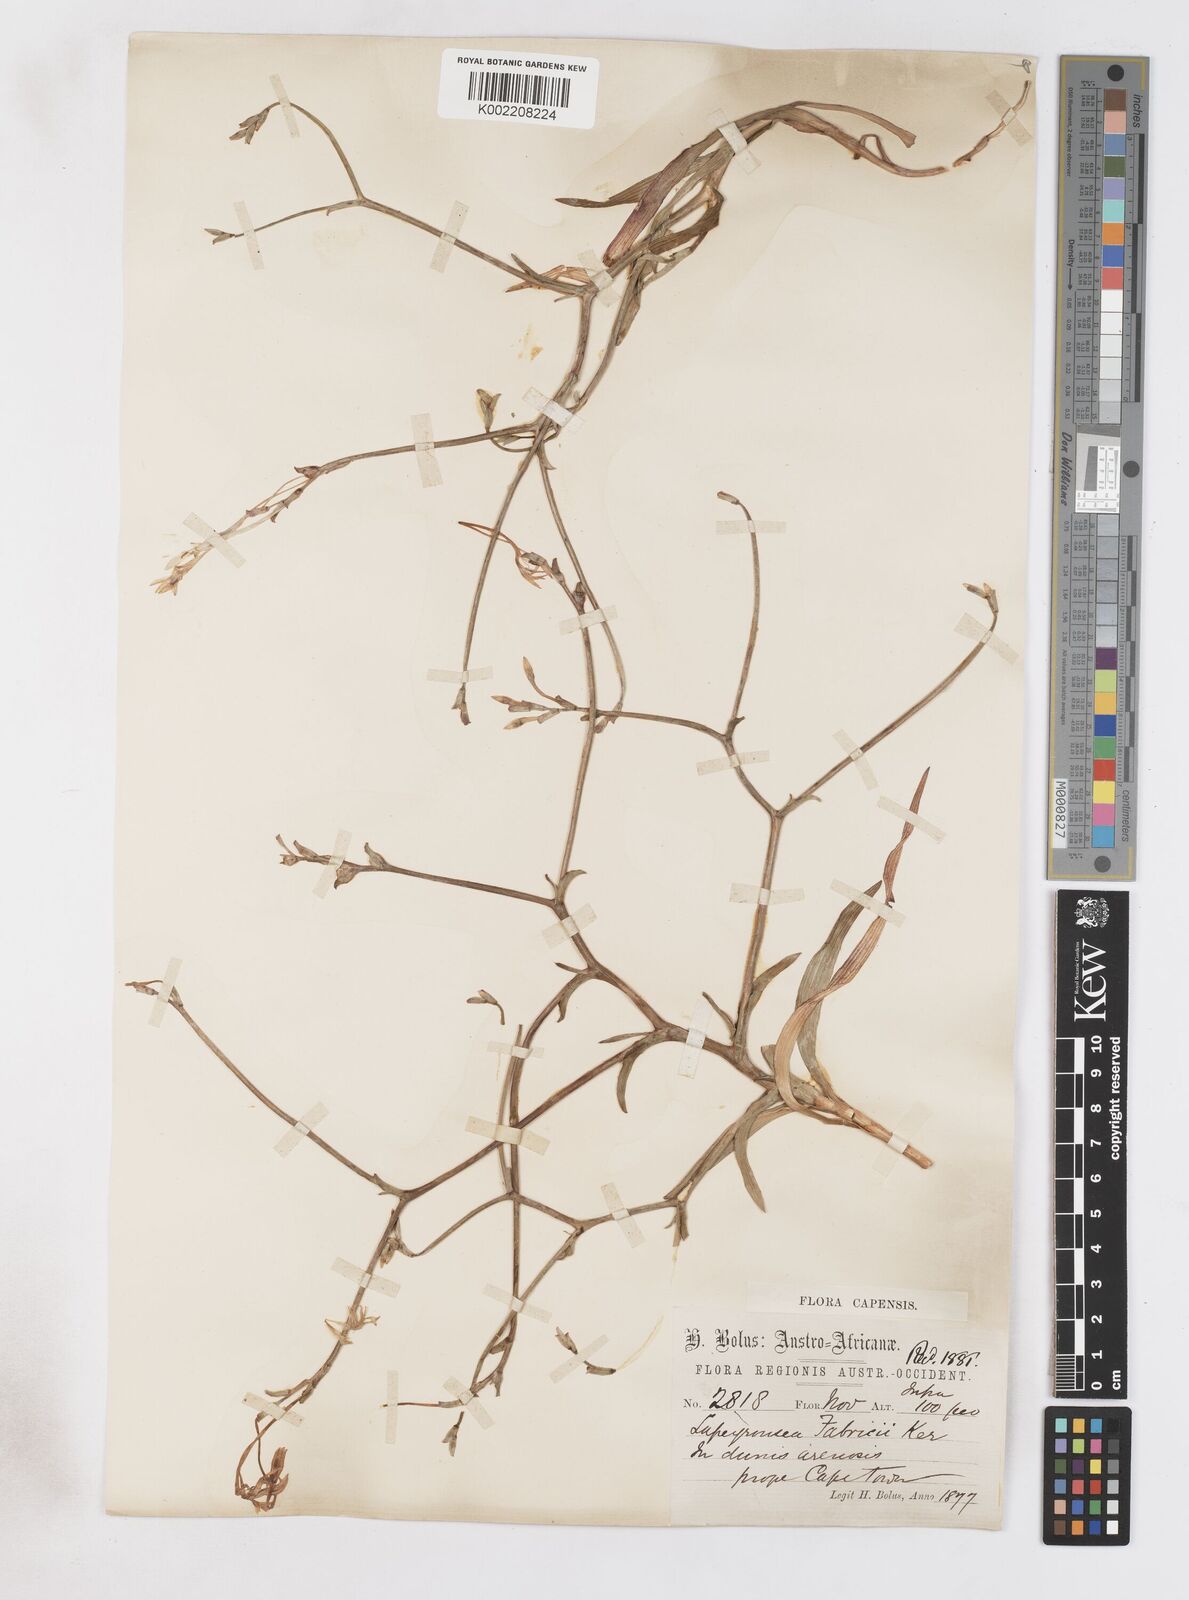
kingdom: Plantae
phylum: Tracheophyta
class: Liliopsida
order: Asparagales
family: Iridaceae
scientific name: Iridaceae
